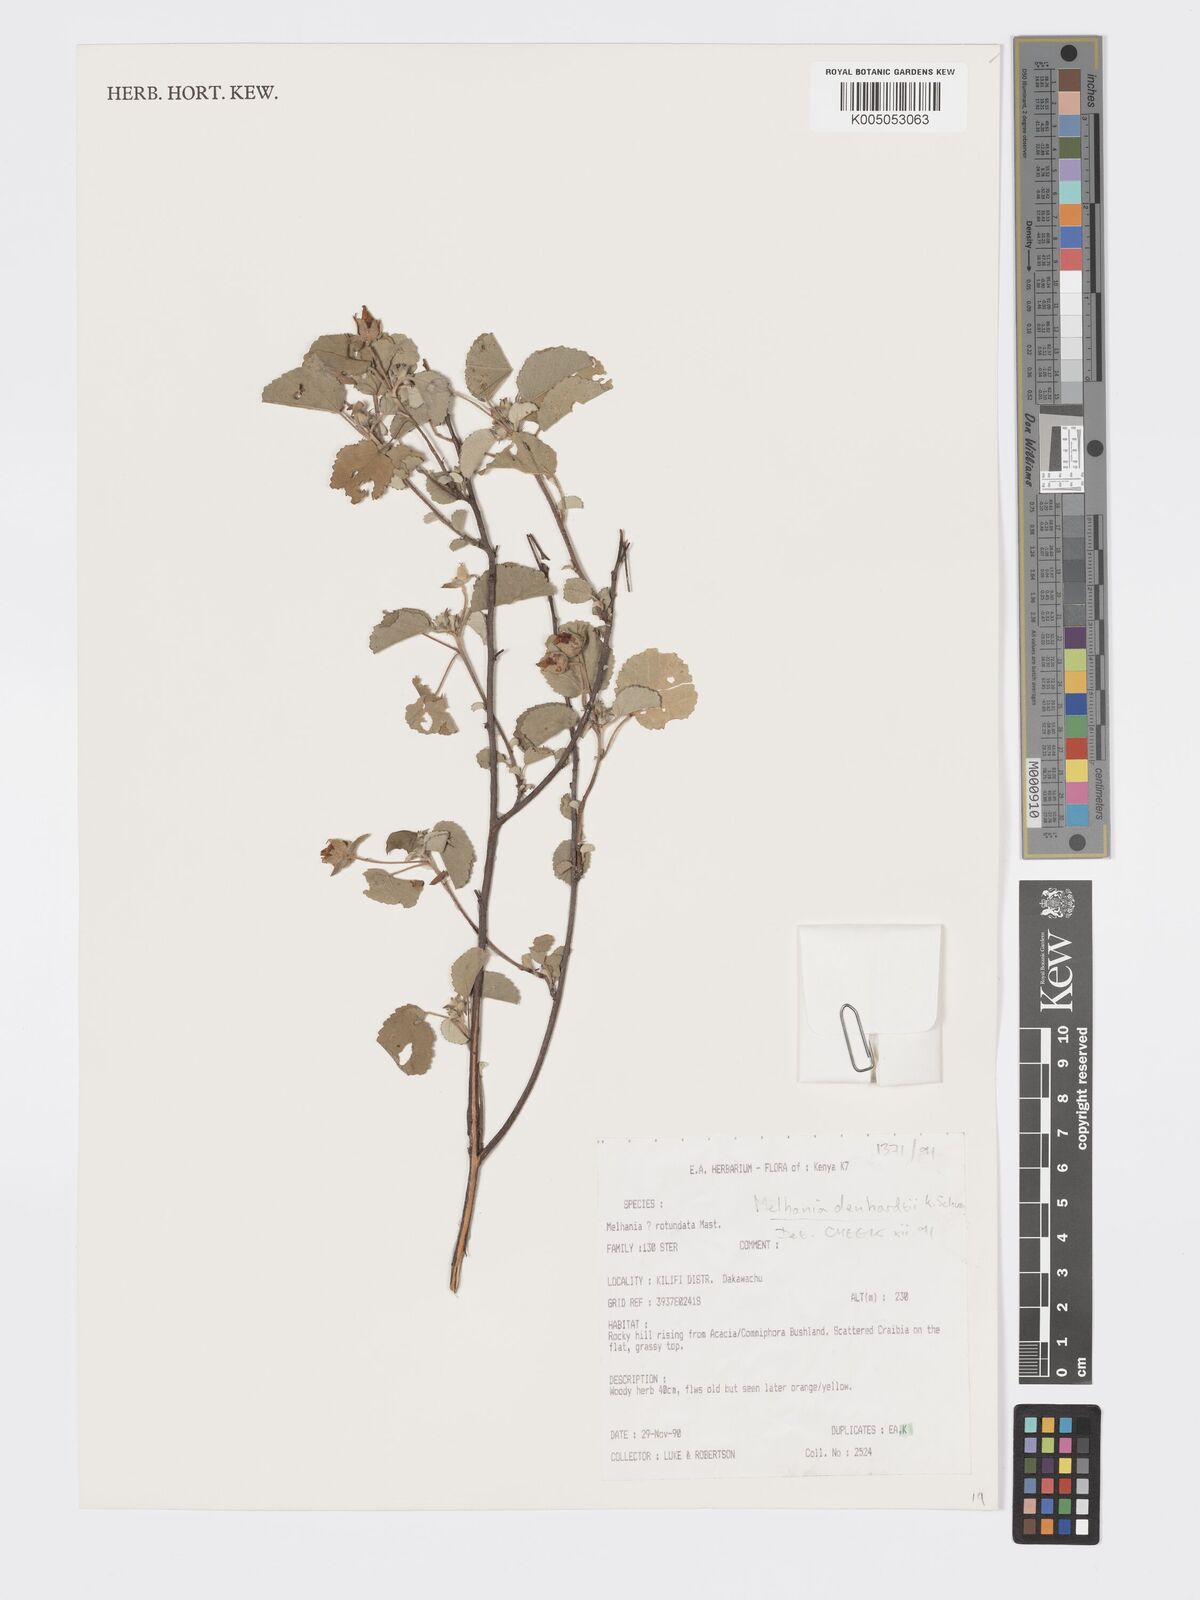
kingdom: Plantae
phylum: Tracheophyta
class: Magnoliopsida
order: Malvales
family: Malvaceae
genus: Melhania
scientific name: Melhania dehnhardtii
